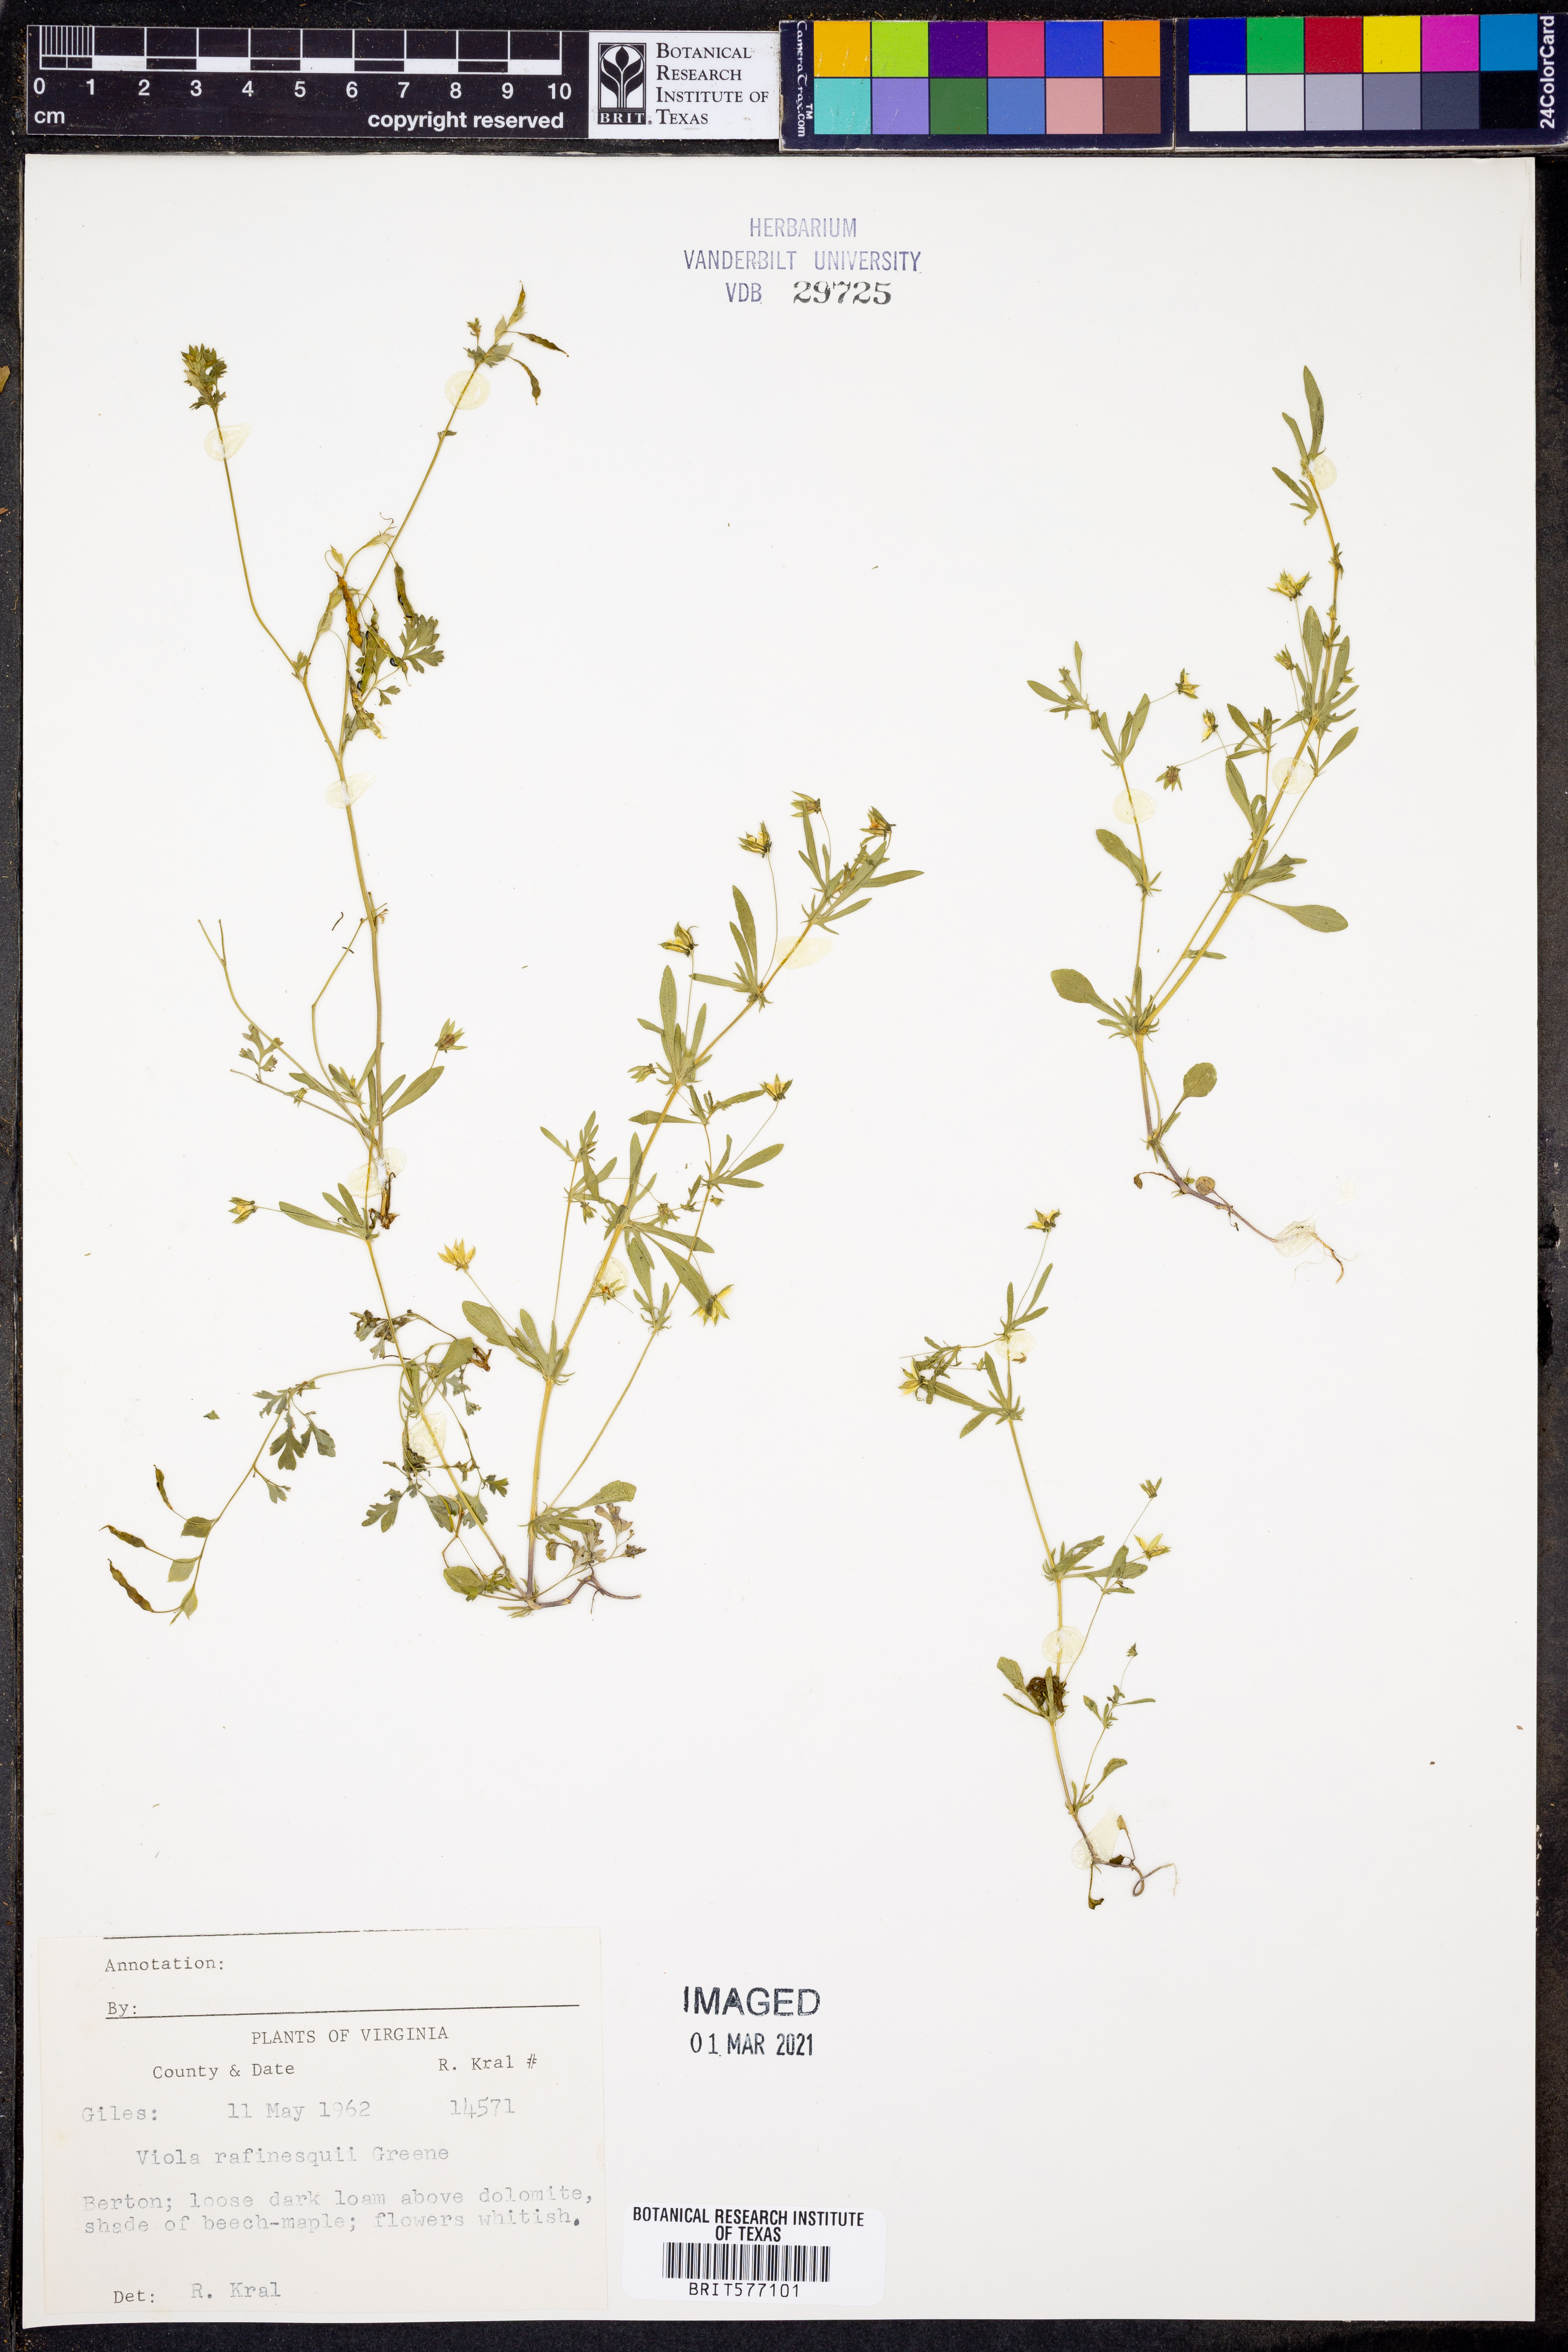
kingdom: Plantae
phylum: Tracheophyta
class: Magnoliopsida
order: Malpighiales
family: Violaceae
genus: Viola
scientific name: Viola rafinesquei
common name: American field pansy
